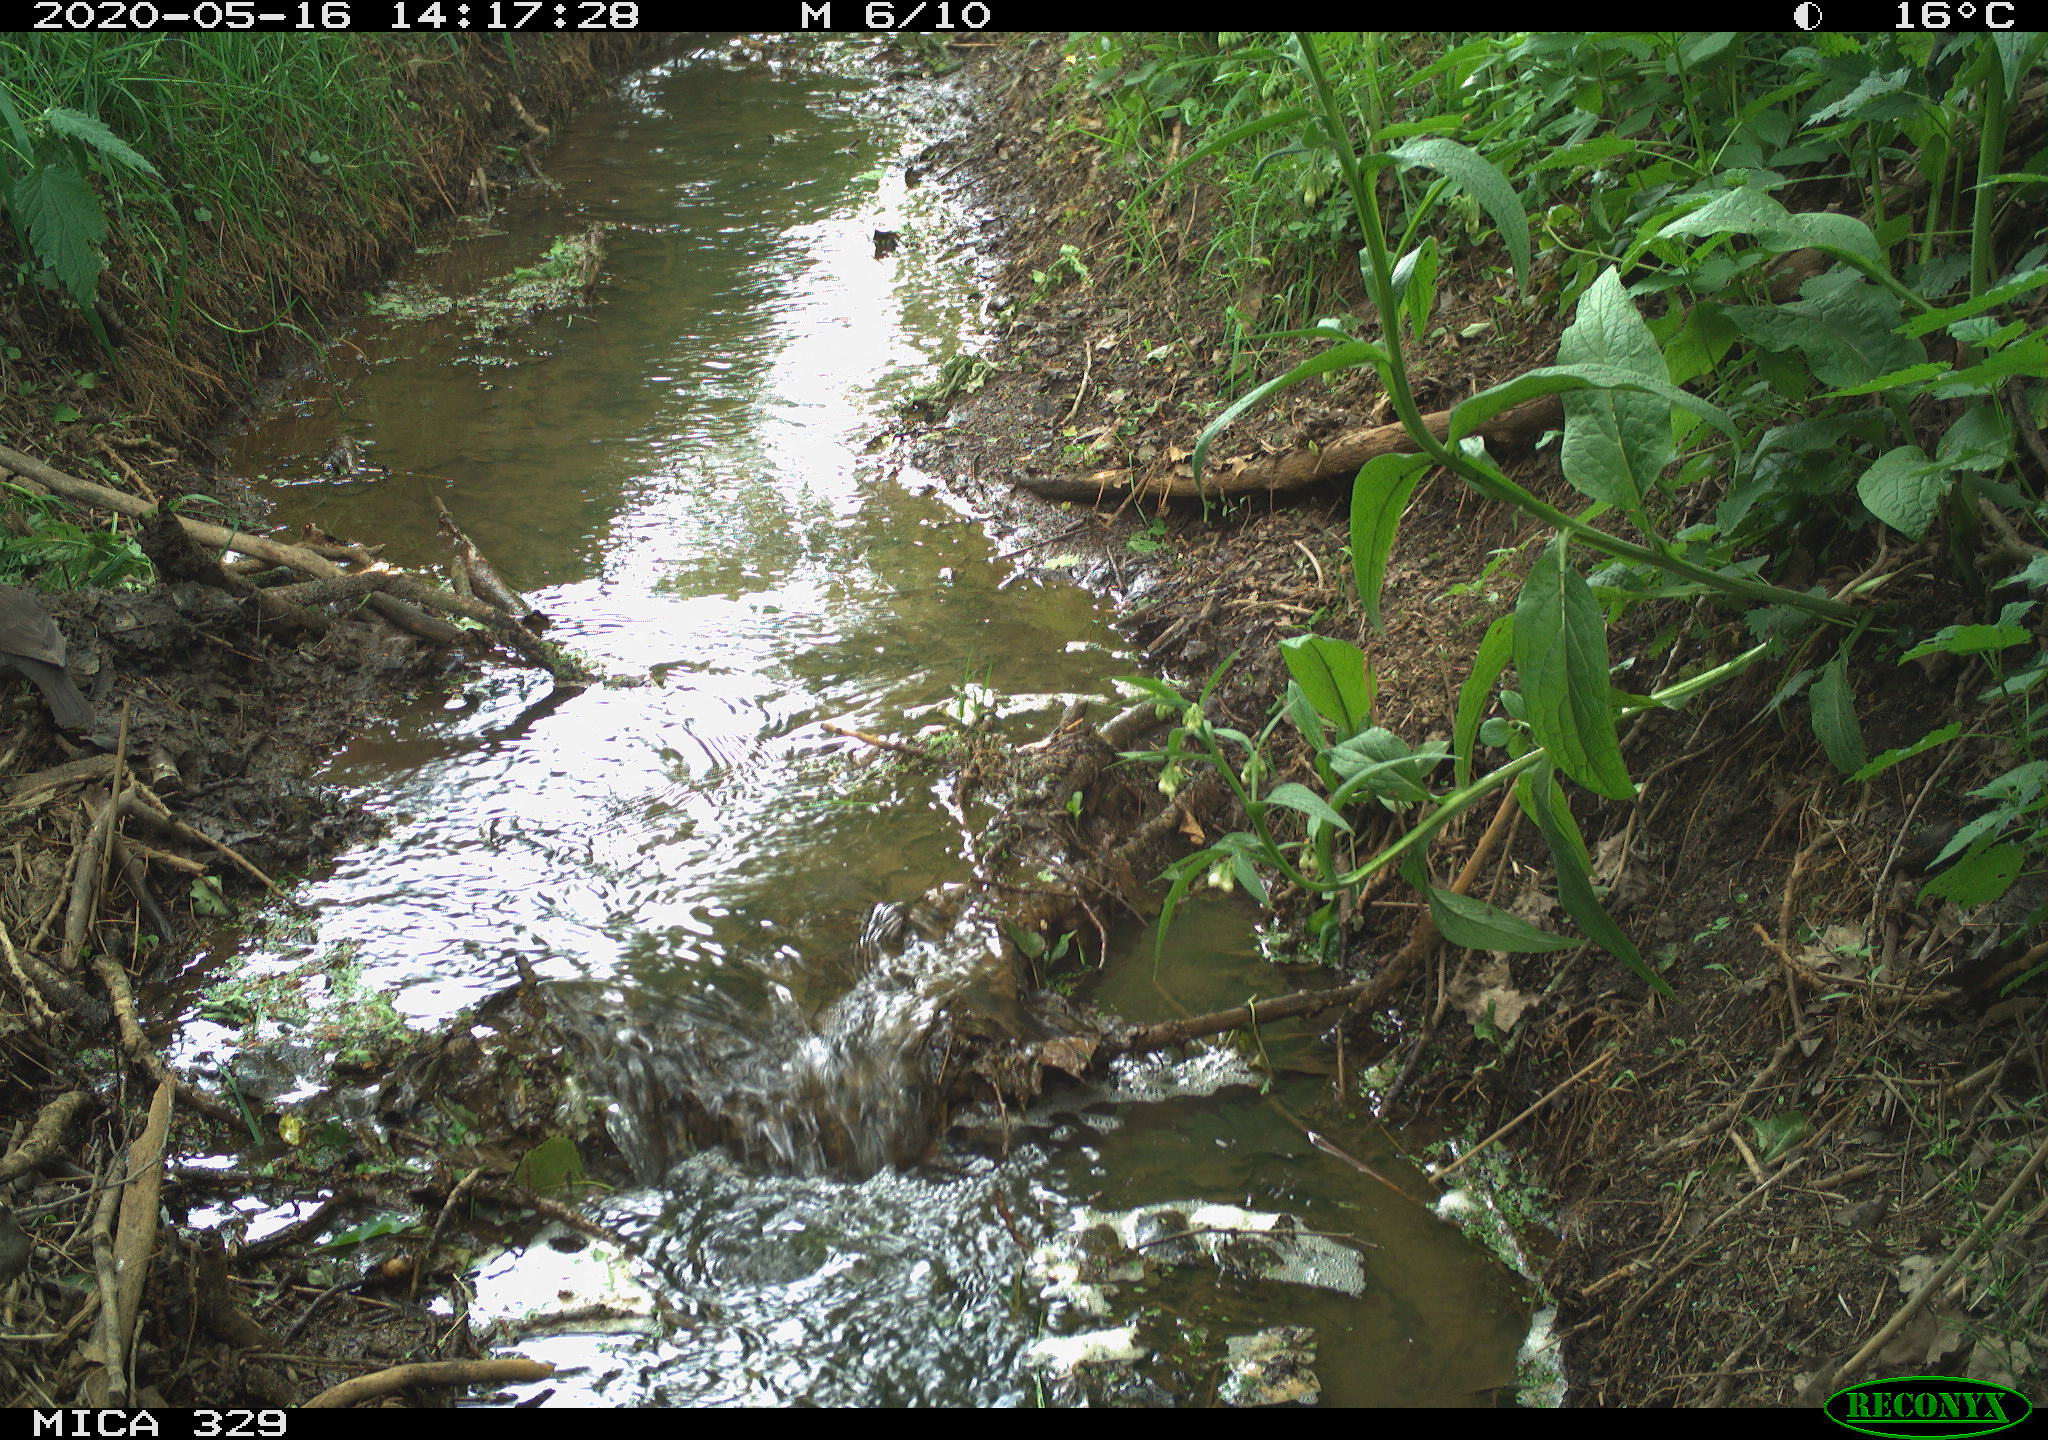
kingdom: Animalia
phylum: Chordata
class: Aves
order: Passeriformes
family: Turdidae
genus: Turdus
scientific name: Turdus merula
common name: Common blackbird
